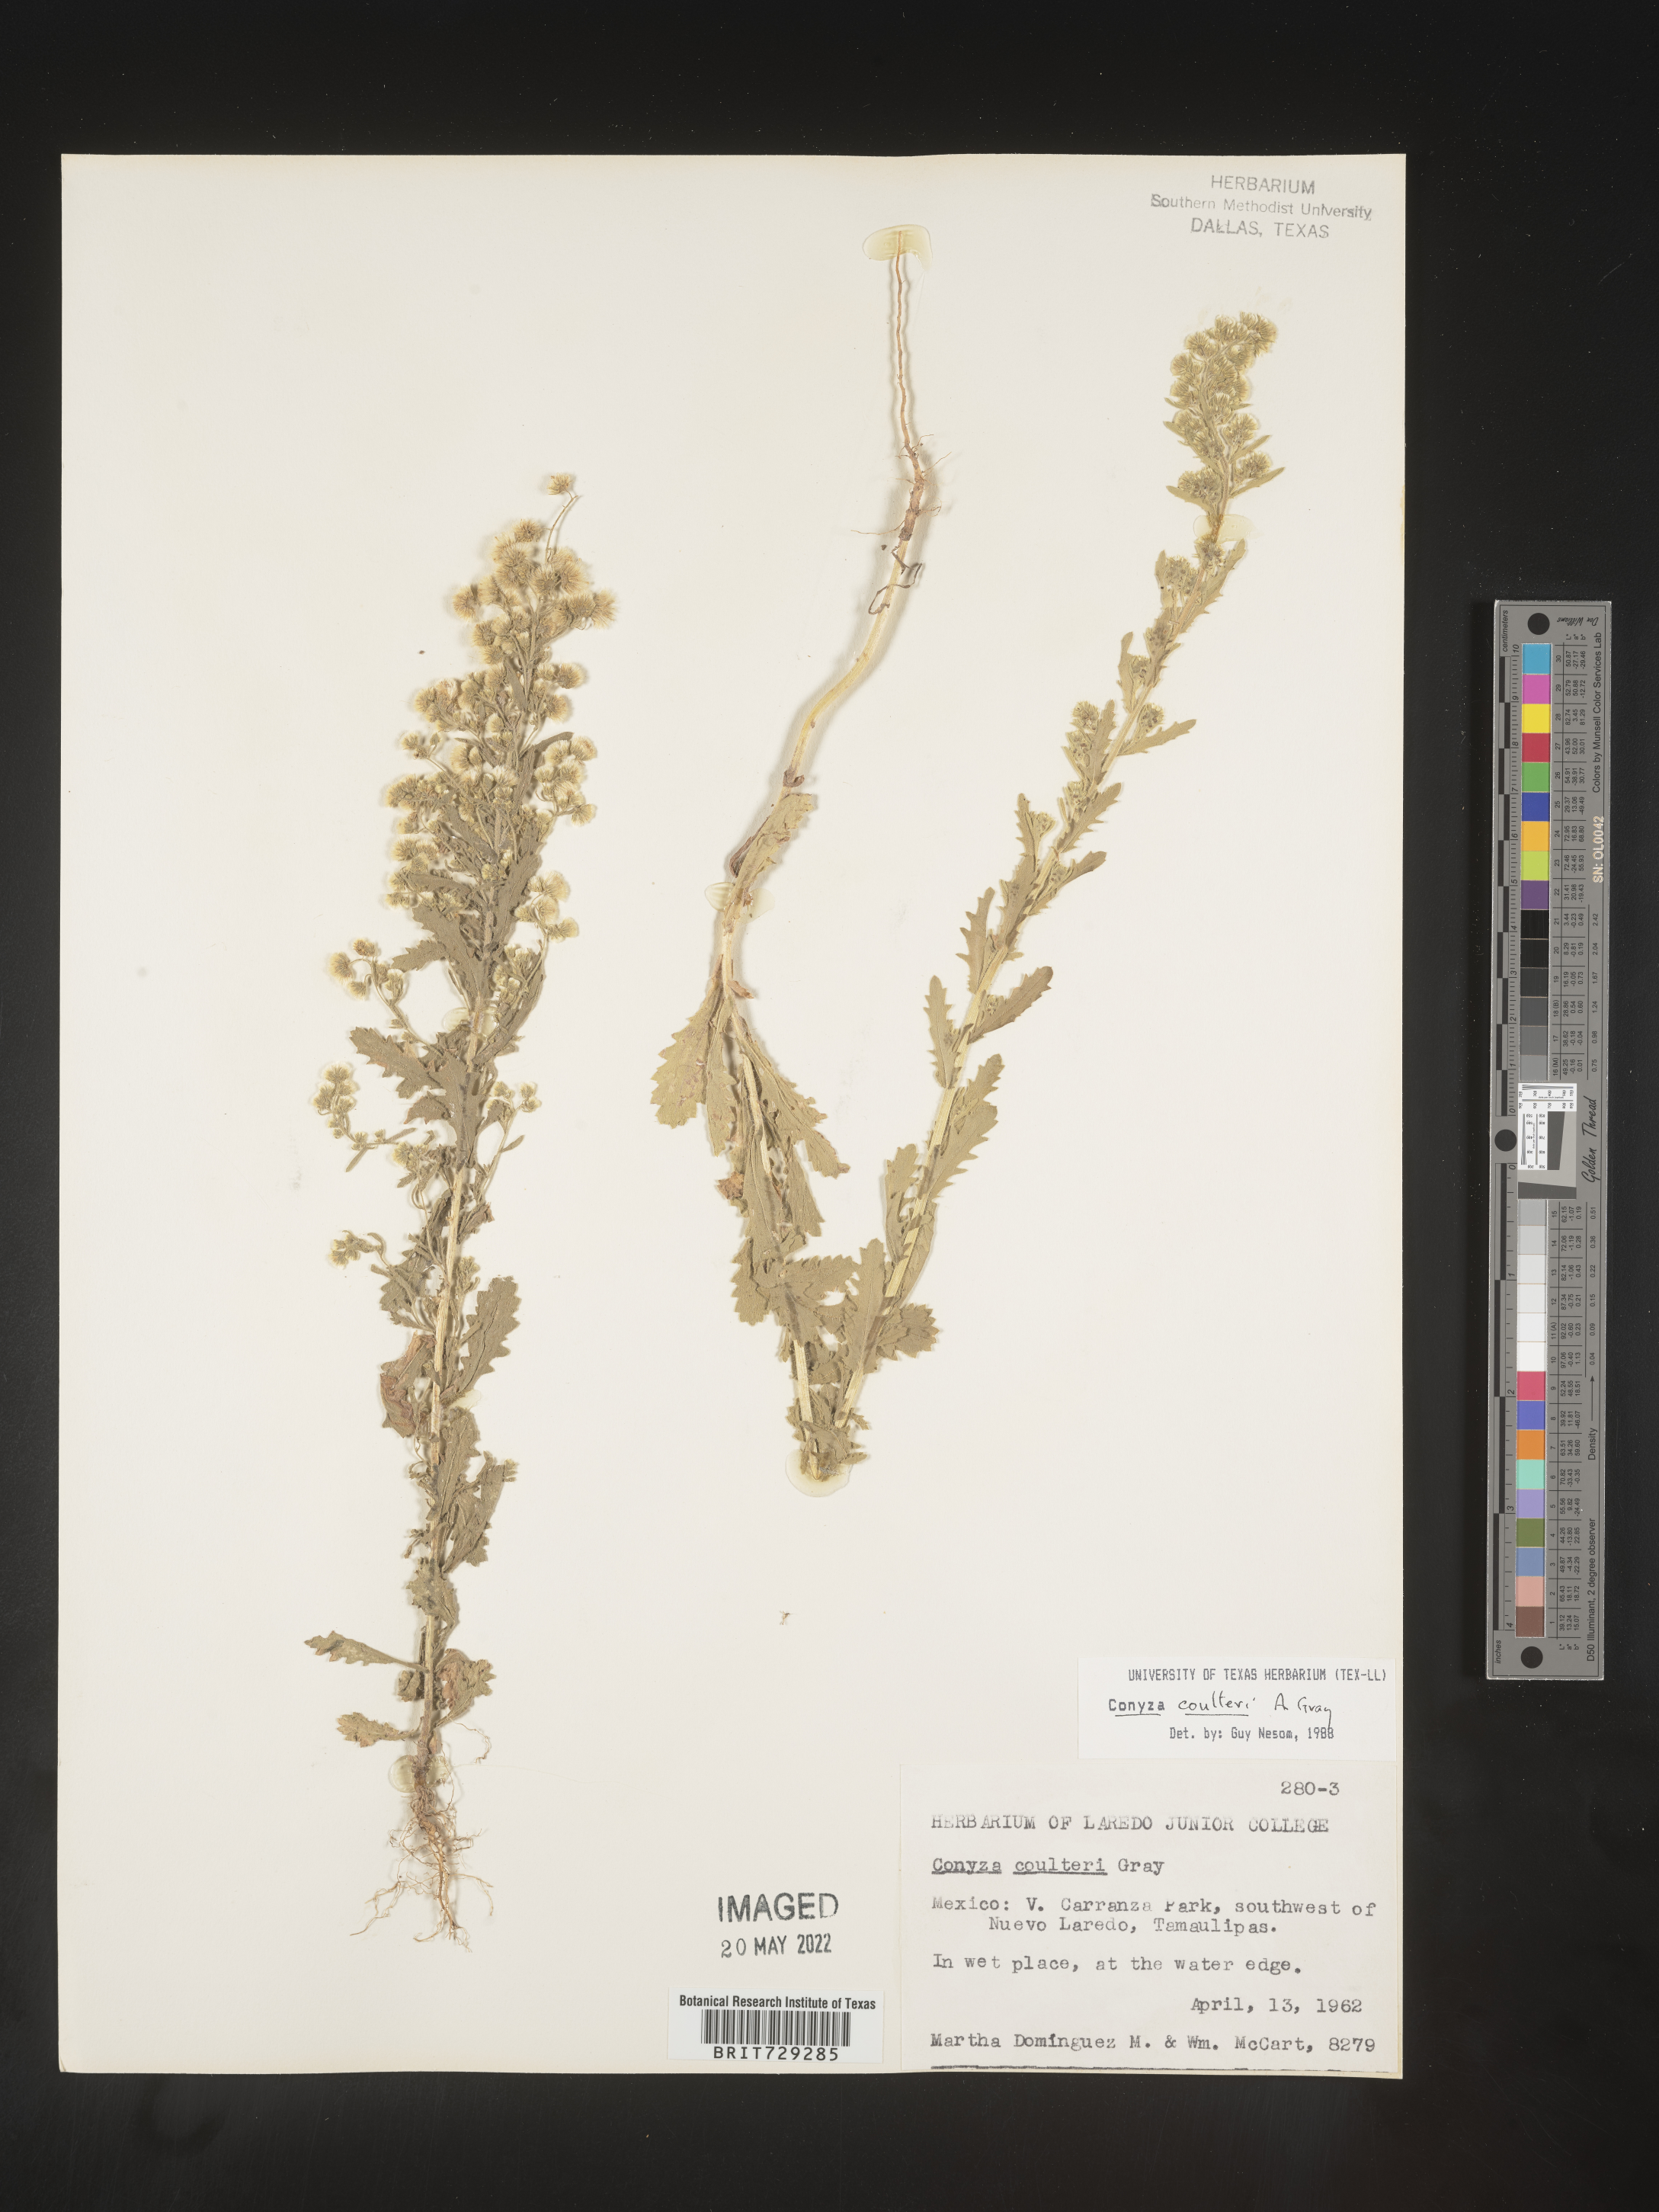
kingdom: Plantae
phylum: Tracheophyta
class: Magnoliopsida
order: Asterales
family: Asteraceae
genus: Laennecia
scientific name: Laennecia
